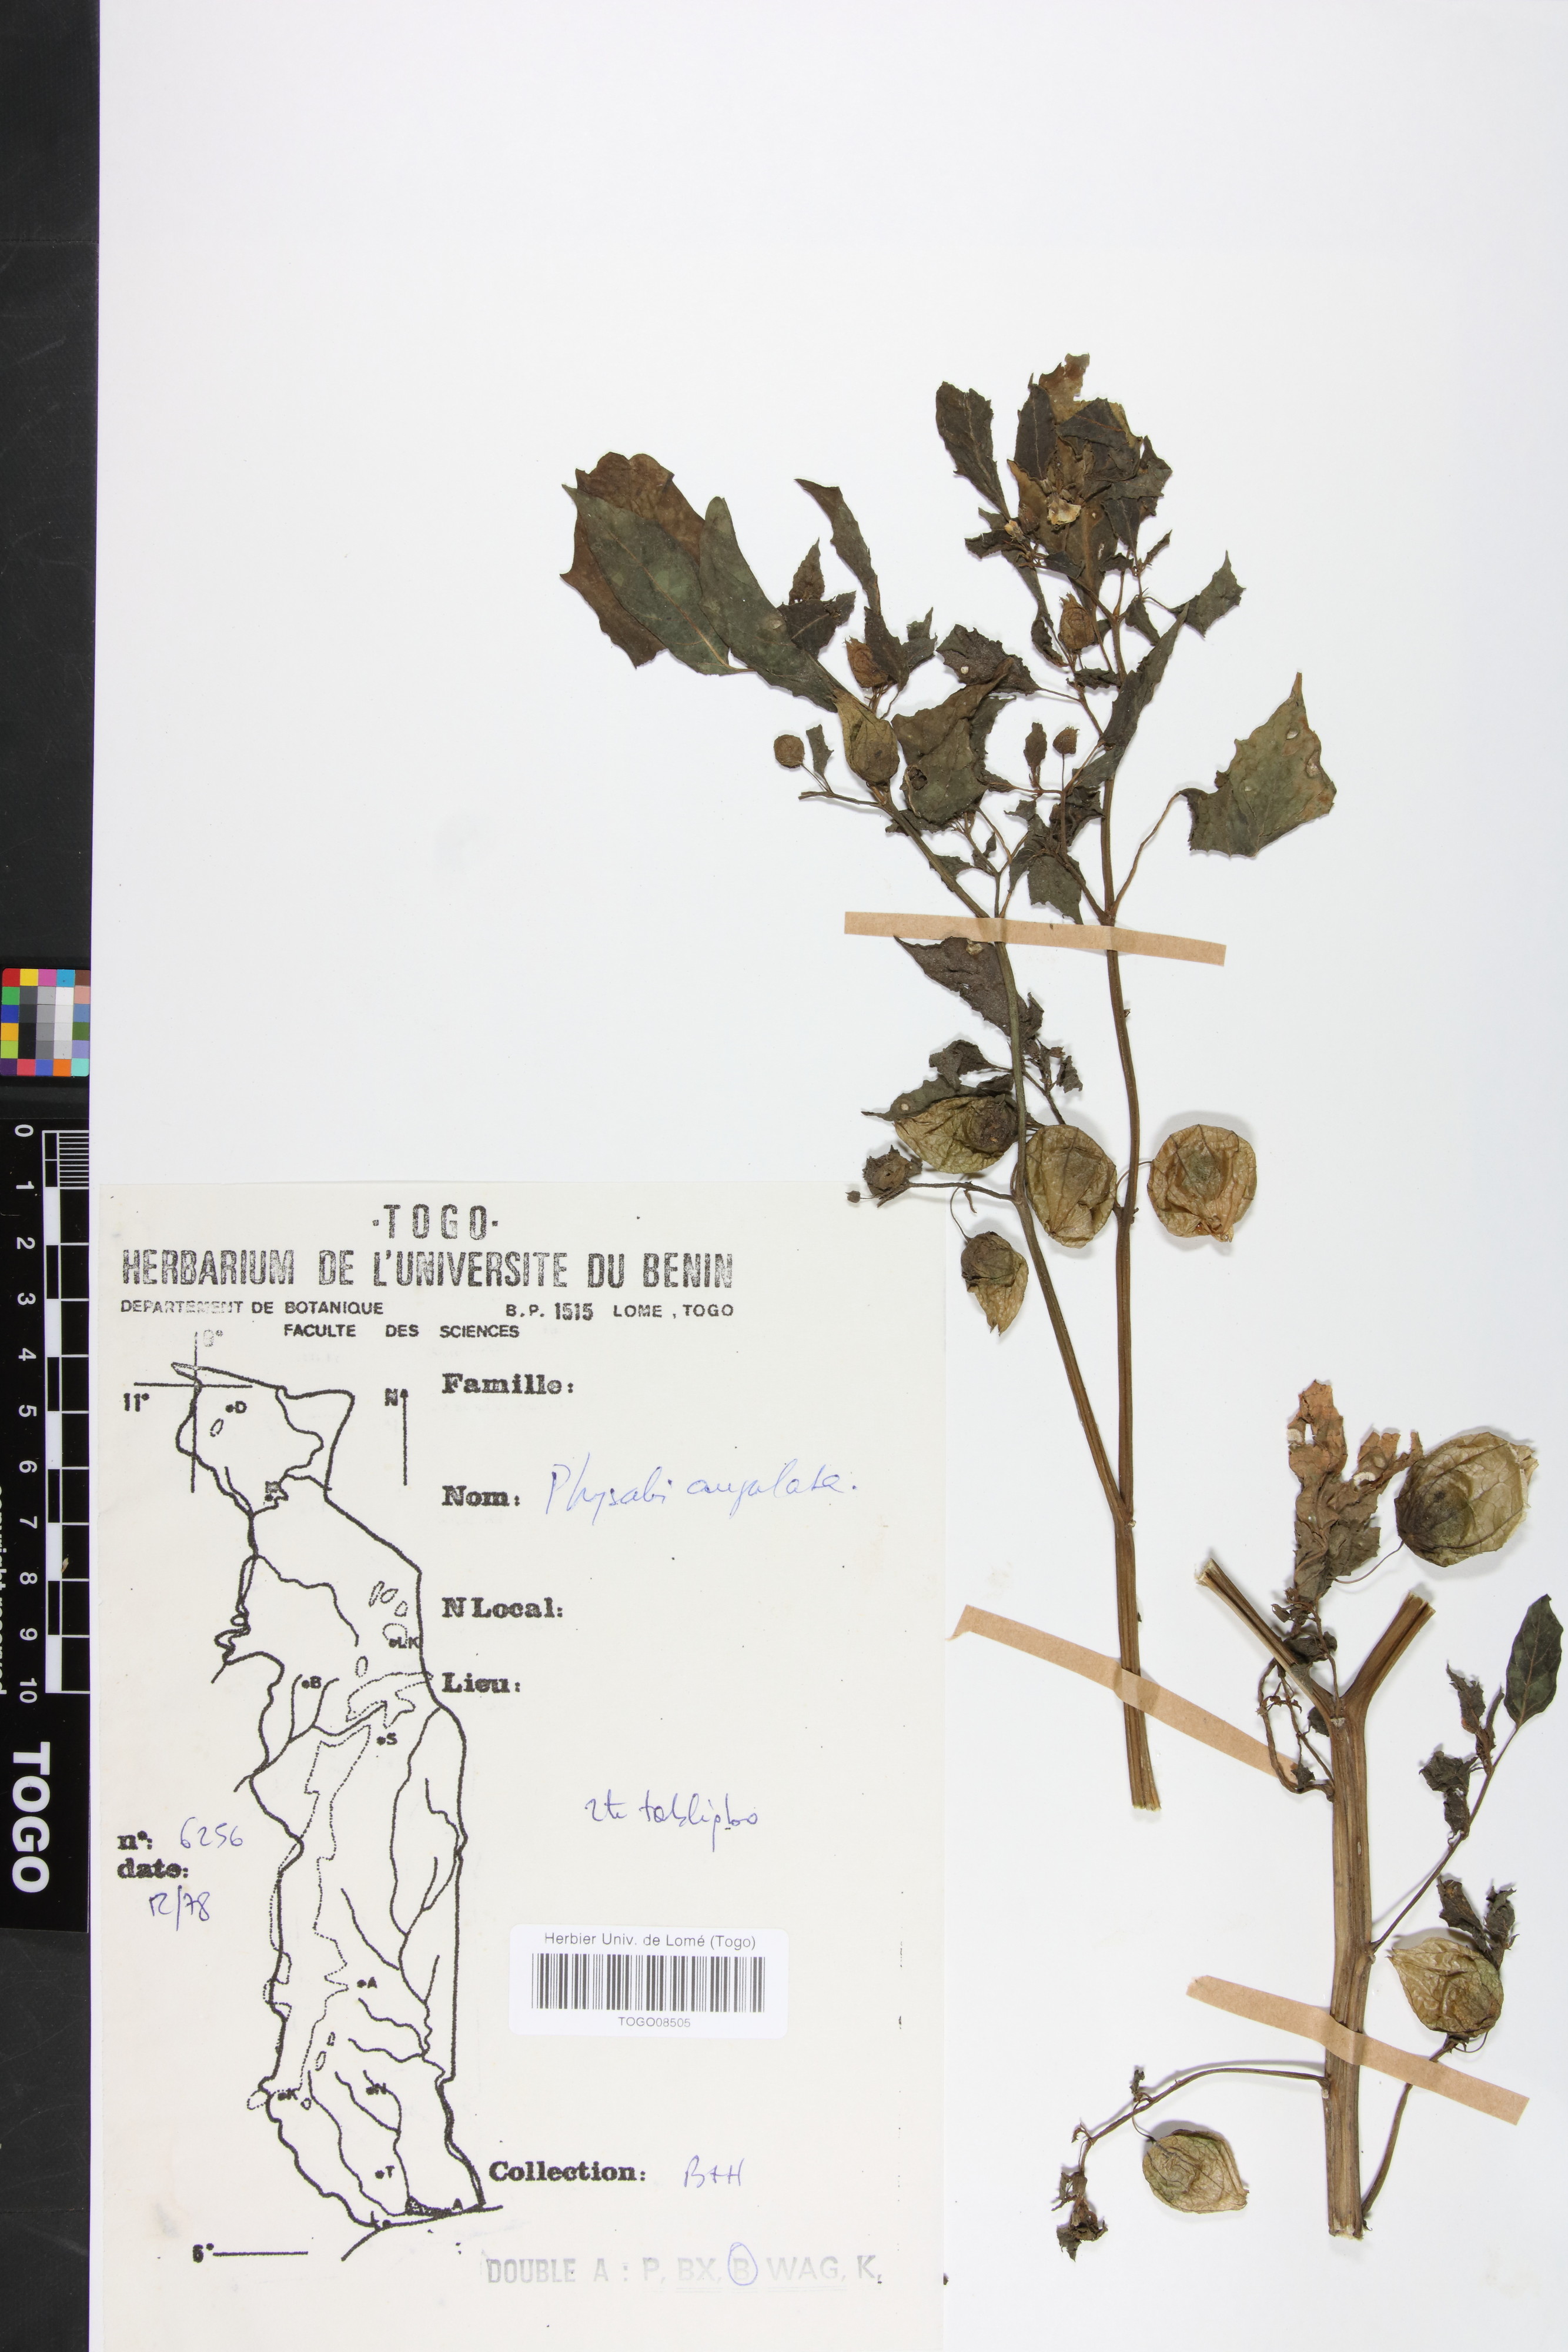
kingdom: Plantae
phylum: Tracheophyta
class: Magnoliopsida
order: Solanales
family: Solanaceae
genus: Physalis
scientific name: Physalis angulata
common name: Angular winter-cherry
